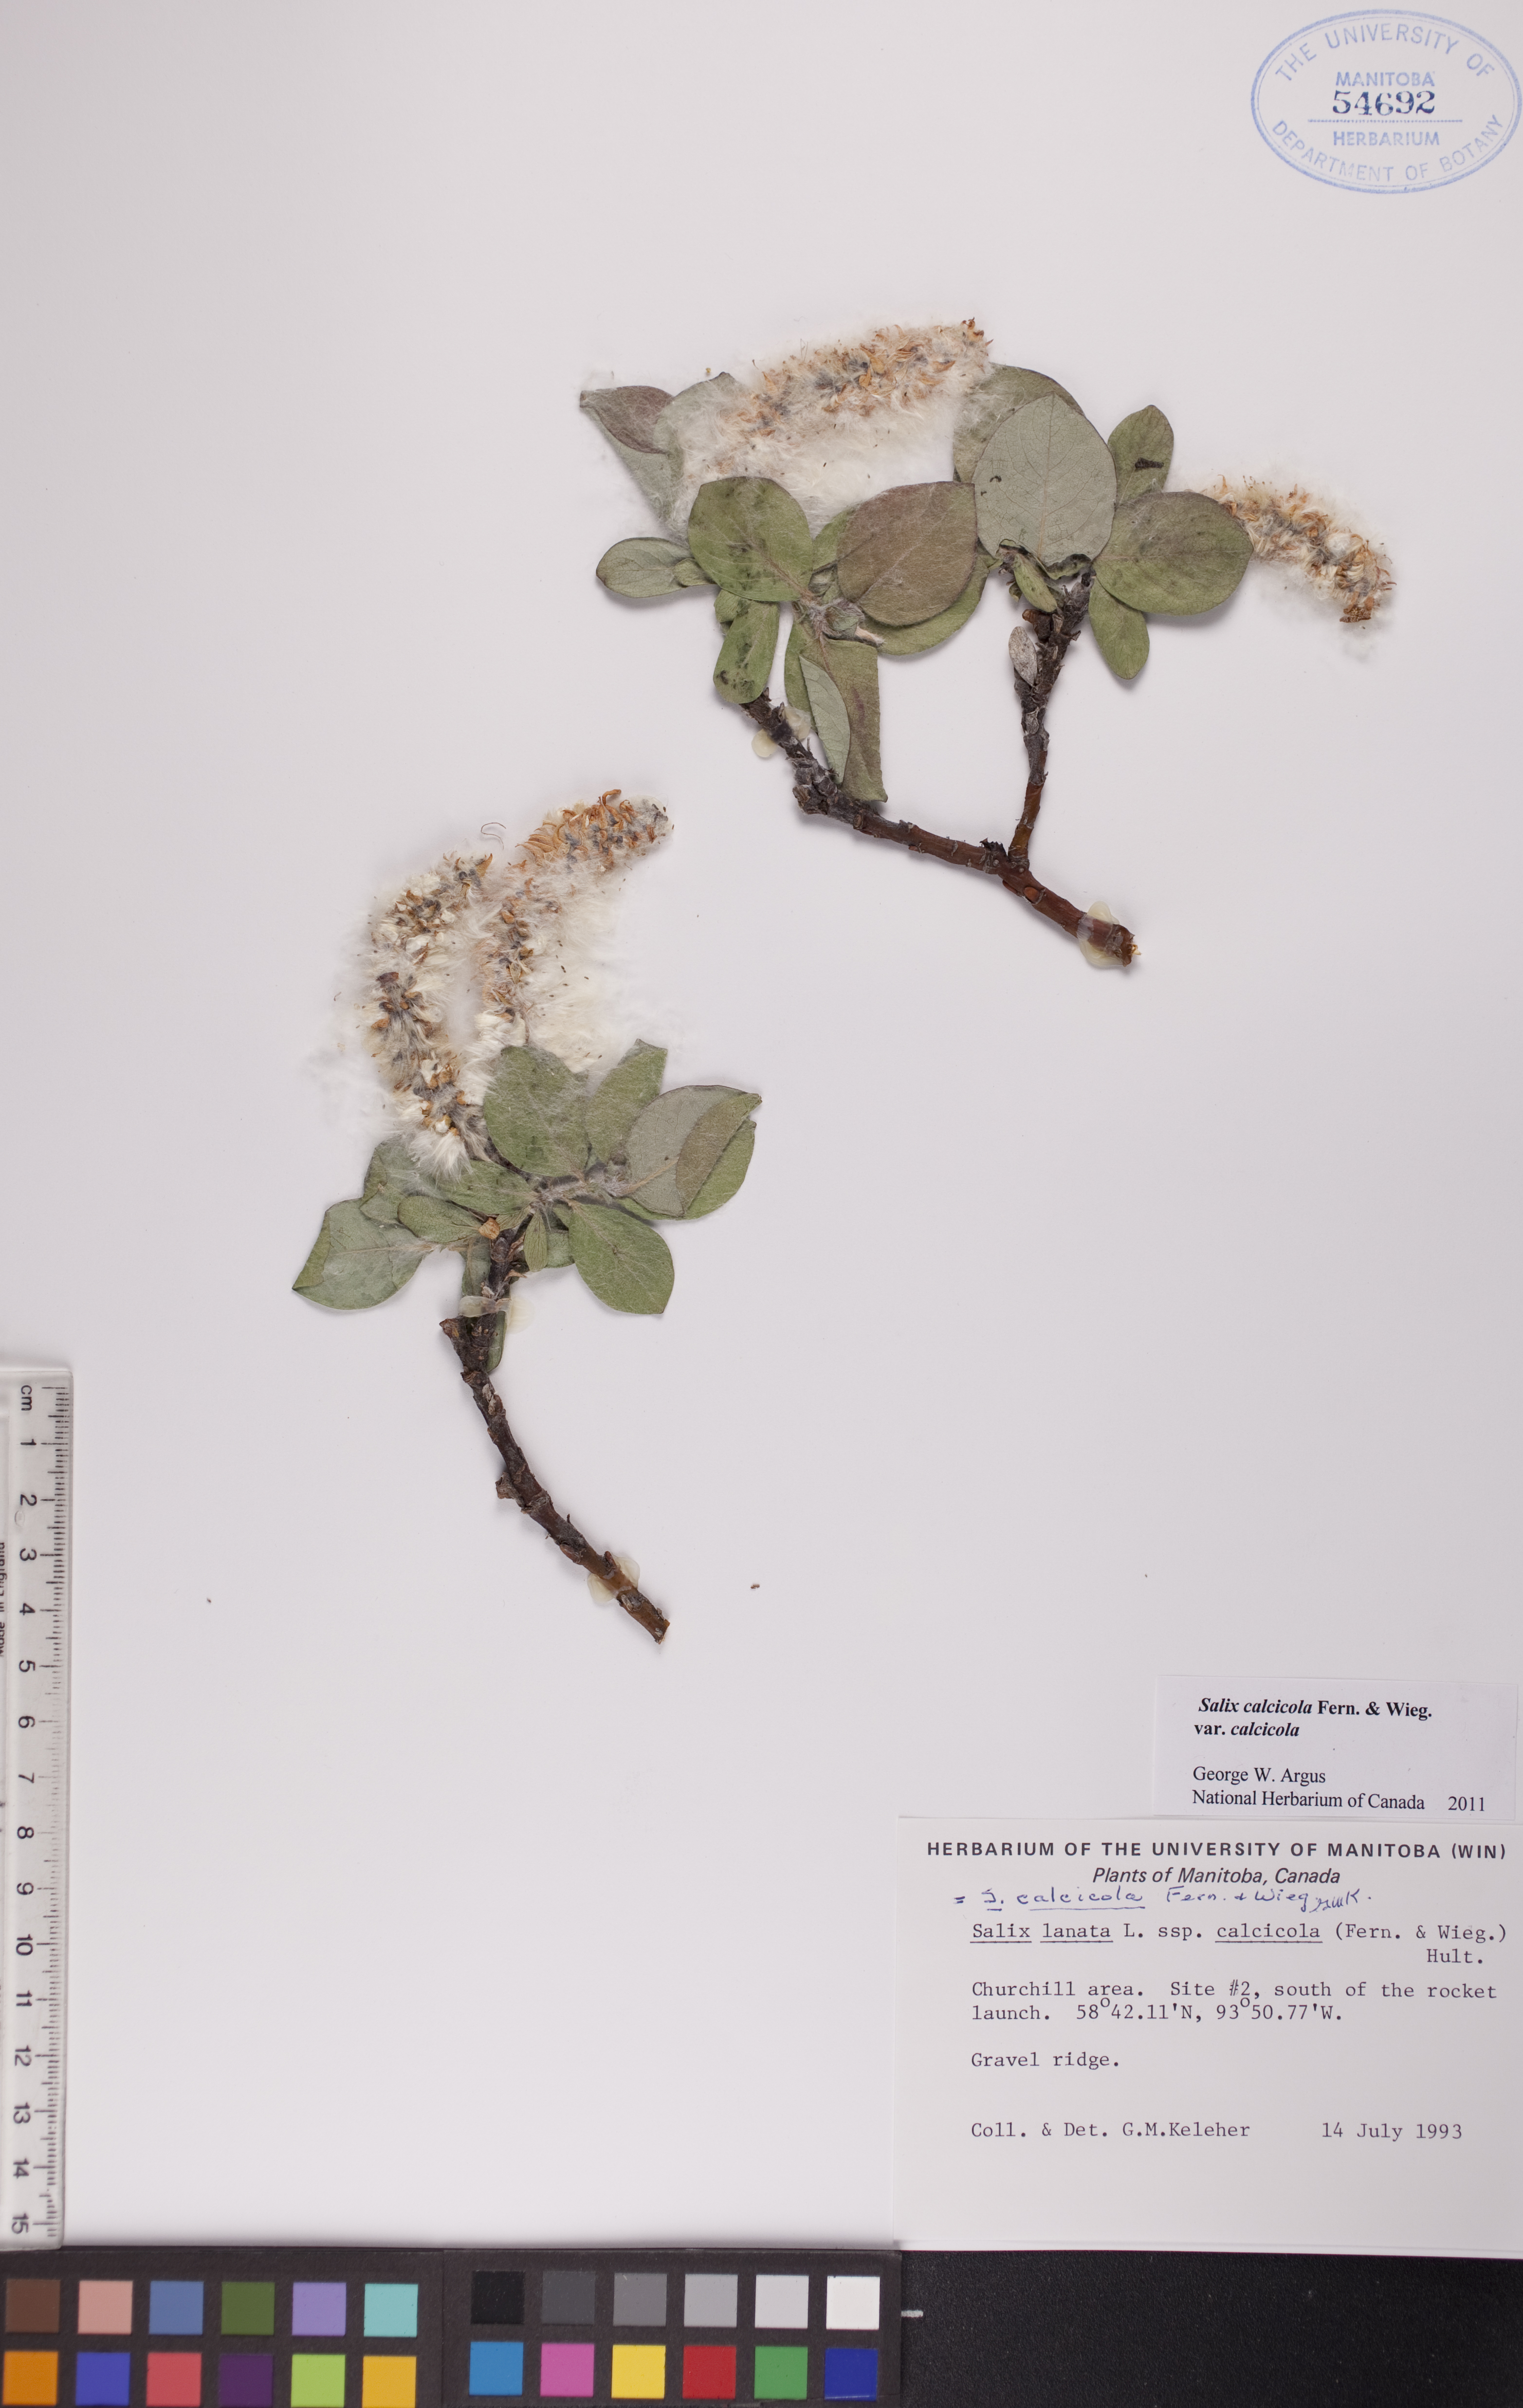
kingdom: Plantae
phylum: Tracheophyta
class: Magnoliopsida
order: Malpighiales
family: Salicaceae
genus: Salix
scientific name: Salix calcicola
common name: Calcareous willow
